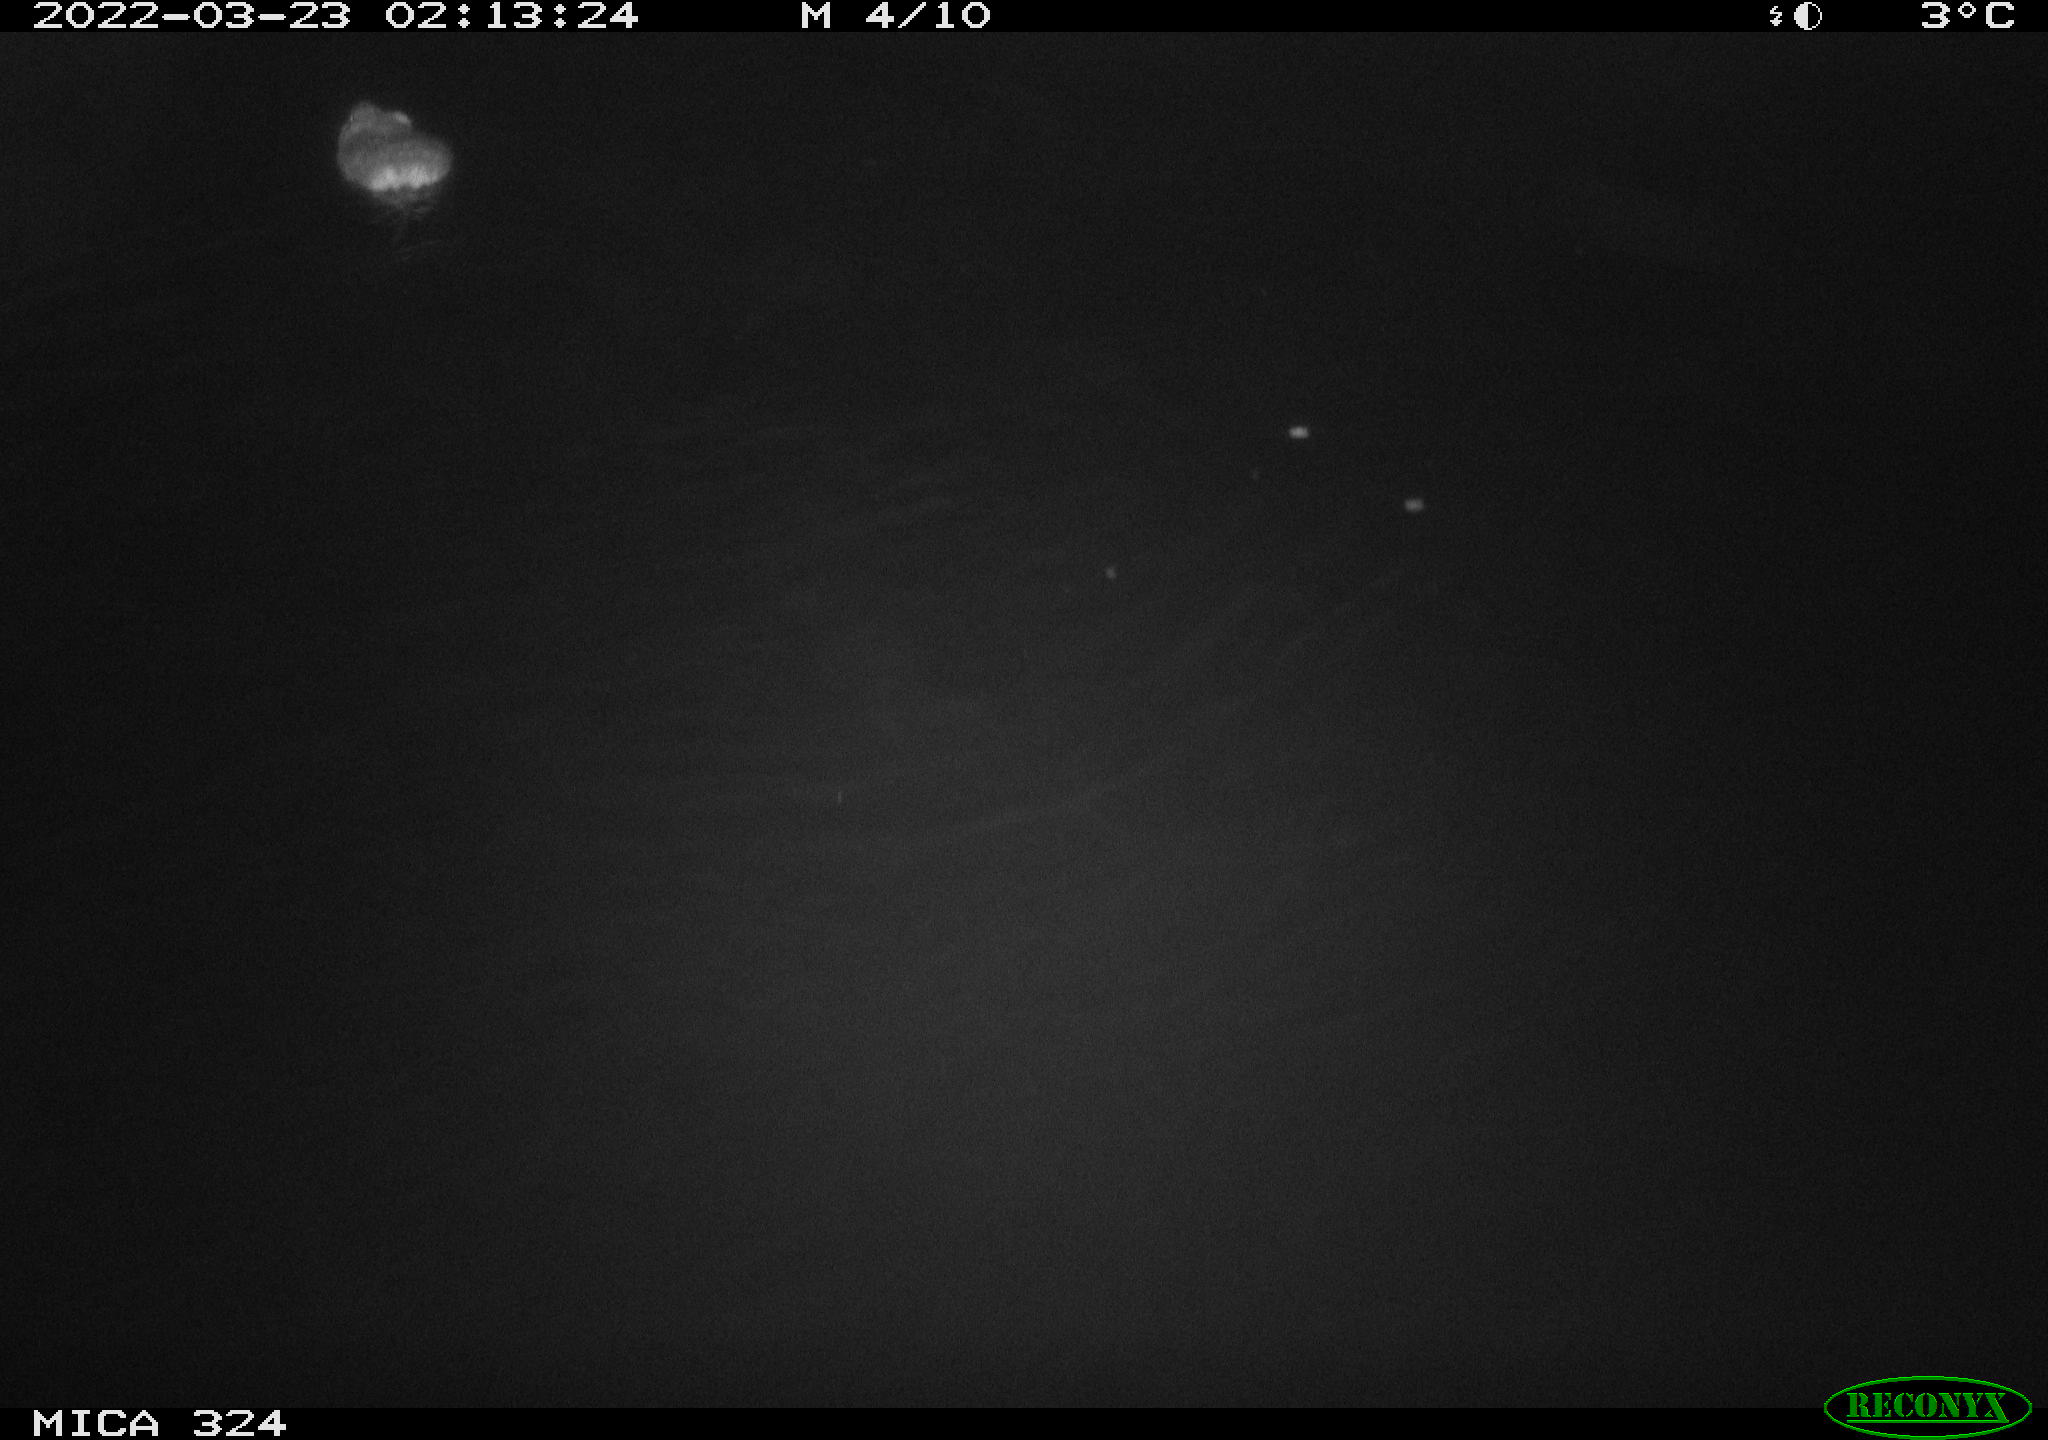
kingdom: Animalia
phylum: Chordata
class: Mammalia
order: Rodentia
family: Cricetidae
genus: Ondatra
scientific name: Ondatra zibethicus
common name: Muskrat
